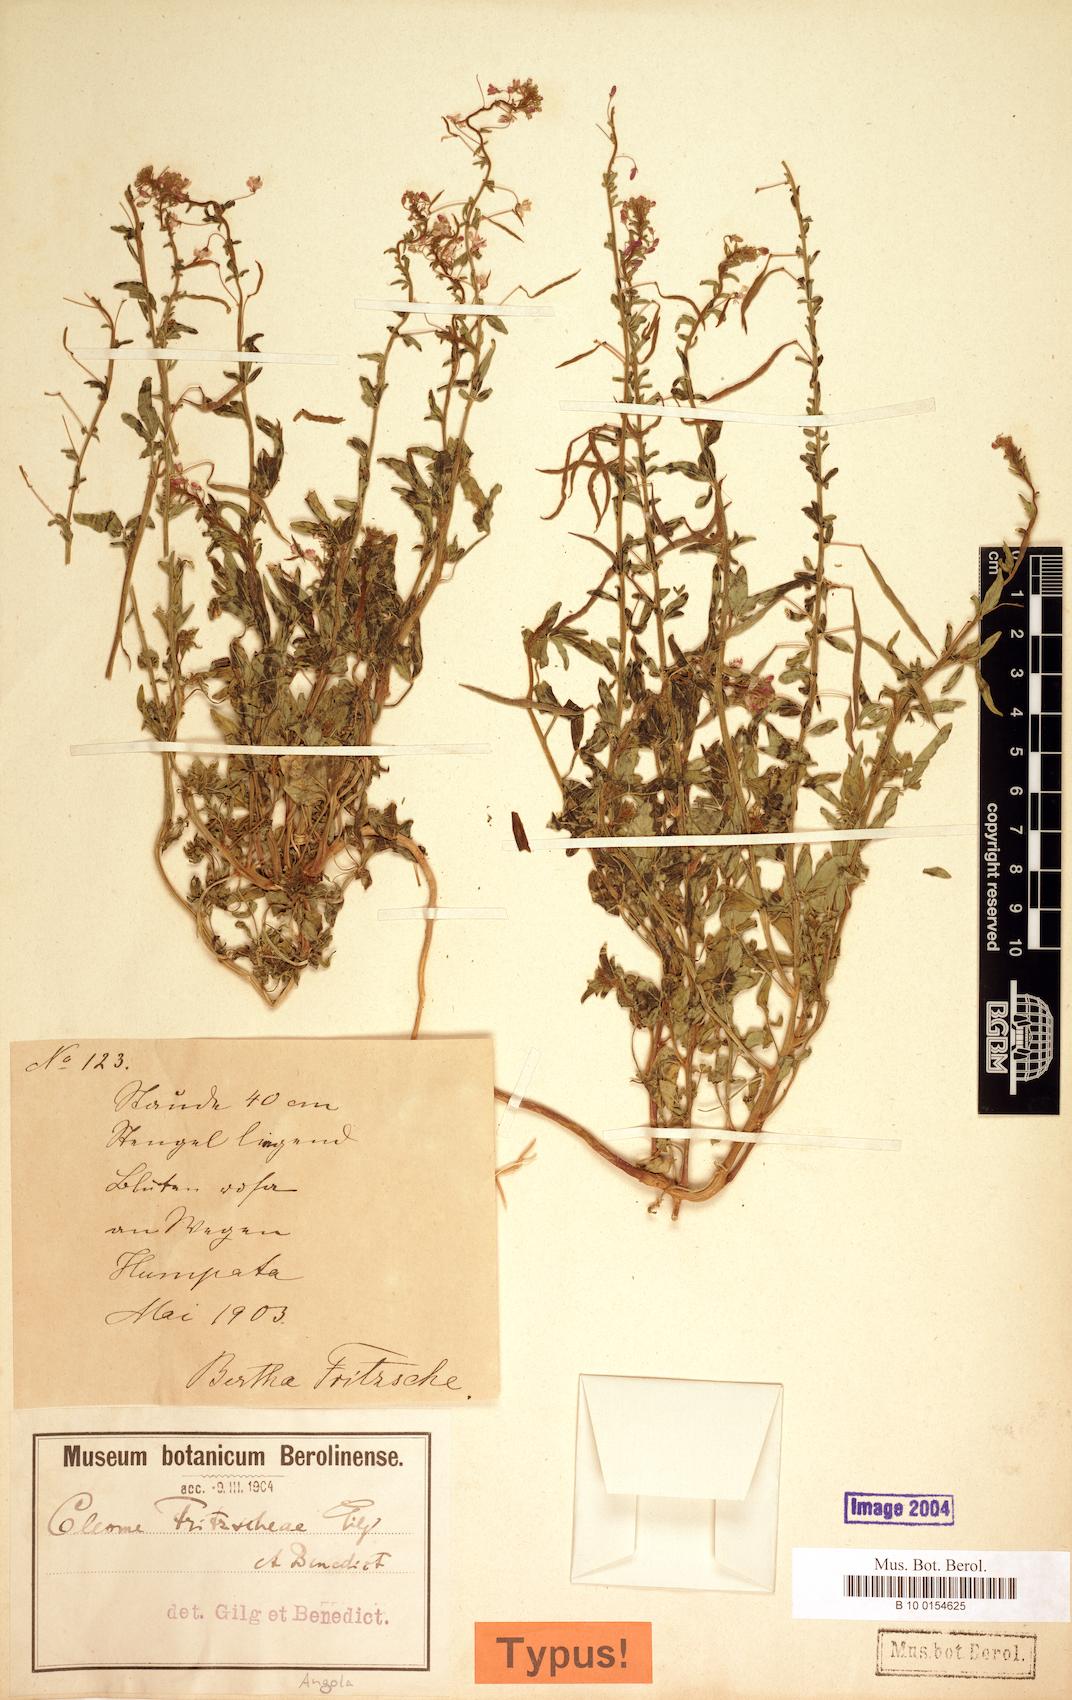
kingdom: Plantae
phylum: Tracheophyta
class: Magnoliopsida
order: Brassicales
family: Cleomaceae
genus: Sieruela
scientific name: Sieruela iberidella
